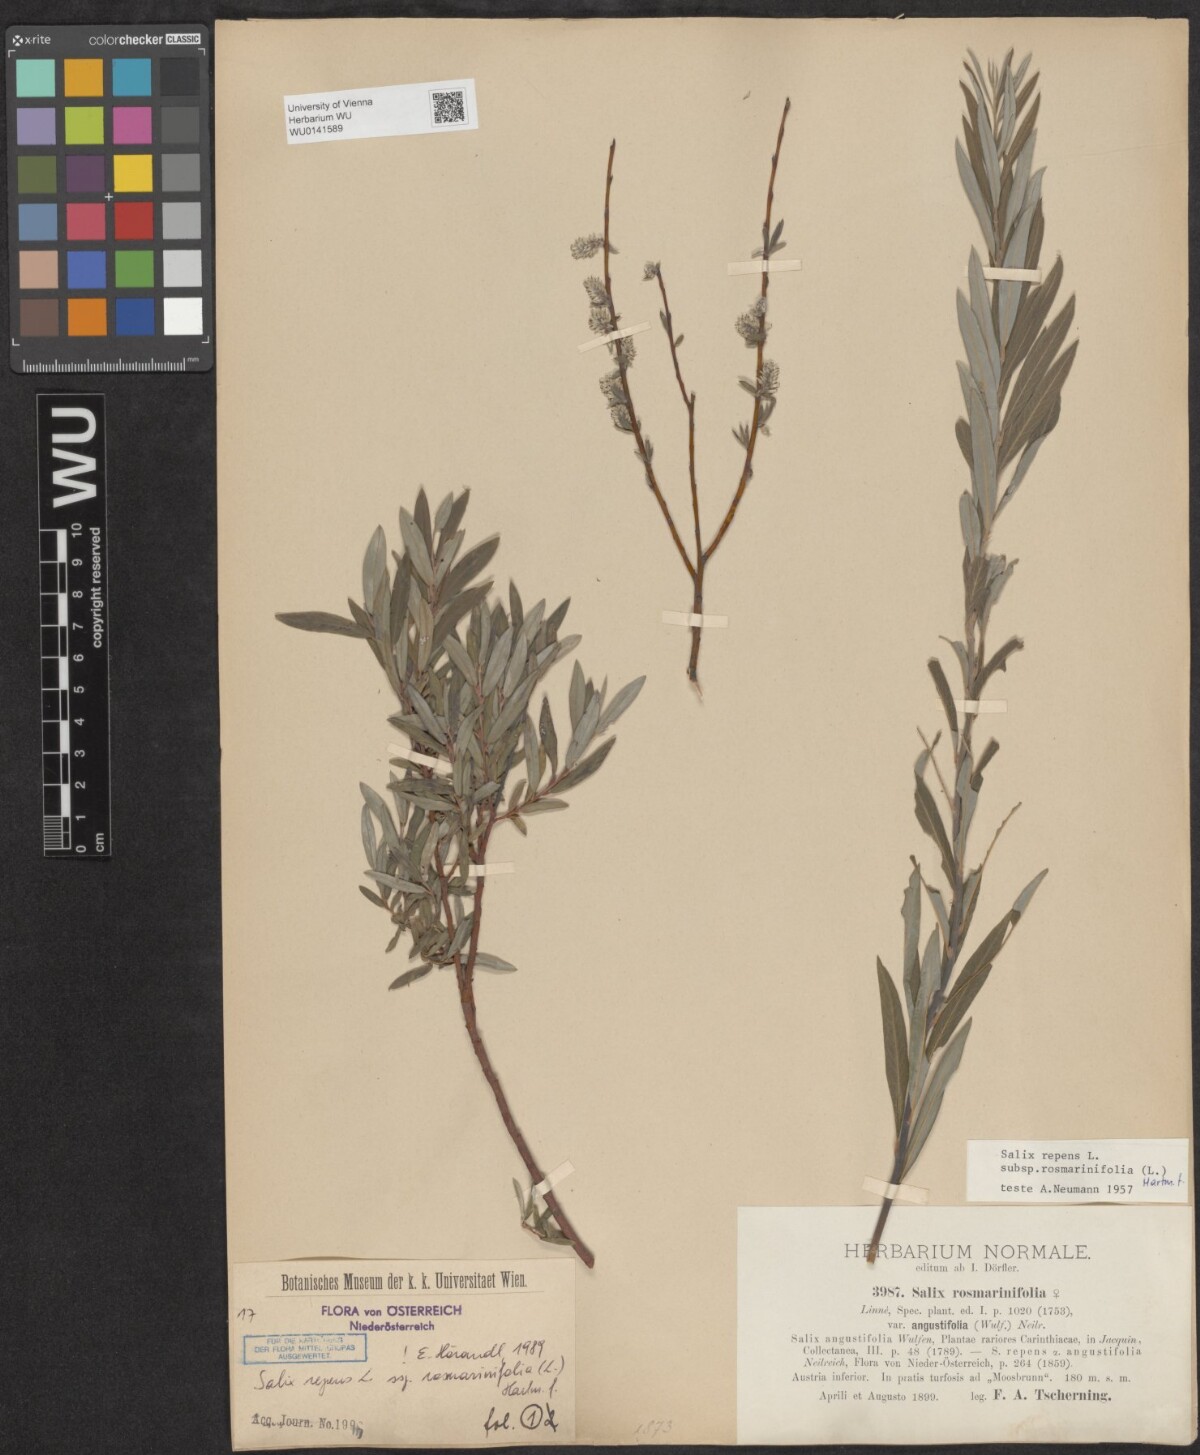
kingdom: Plantae
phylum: Tracheophyta
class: Magnoliopsida
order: Malpighiales
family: Salicaceae
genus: Salix
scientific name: Salix repens
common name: Creeping willow
